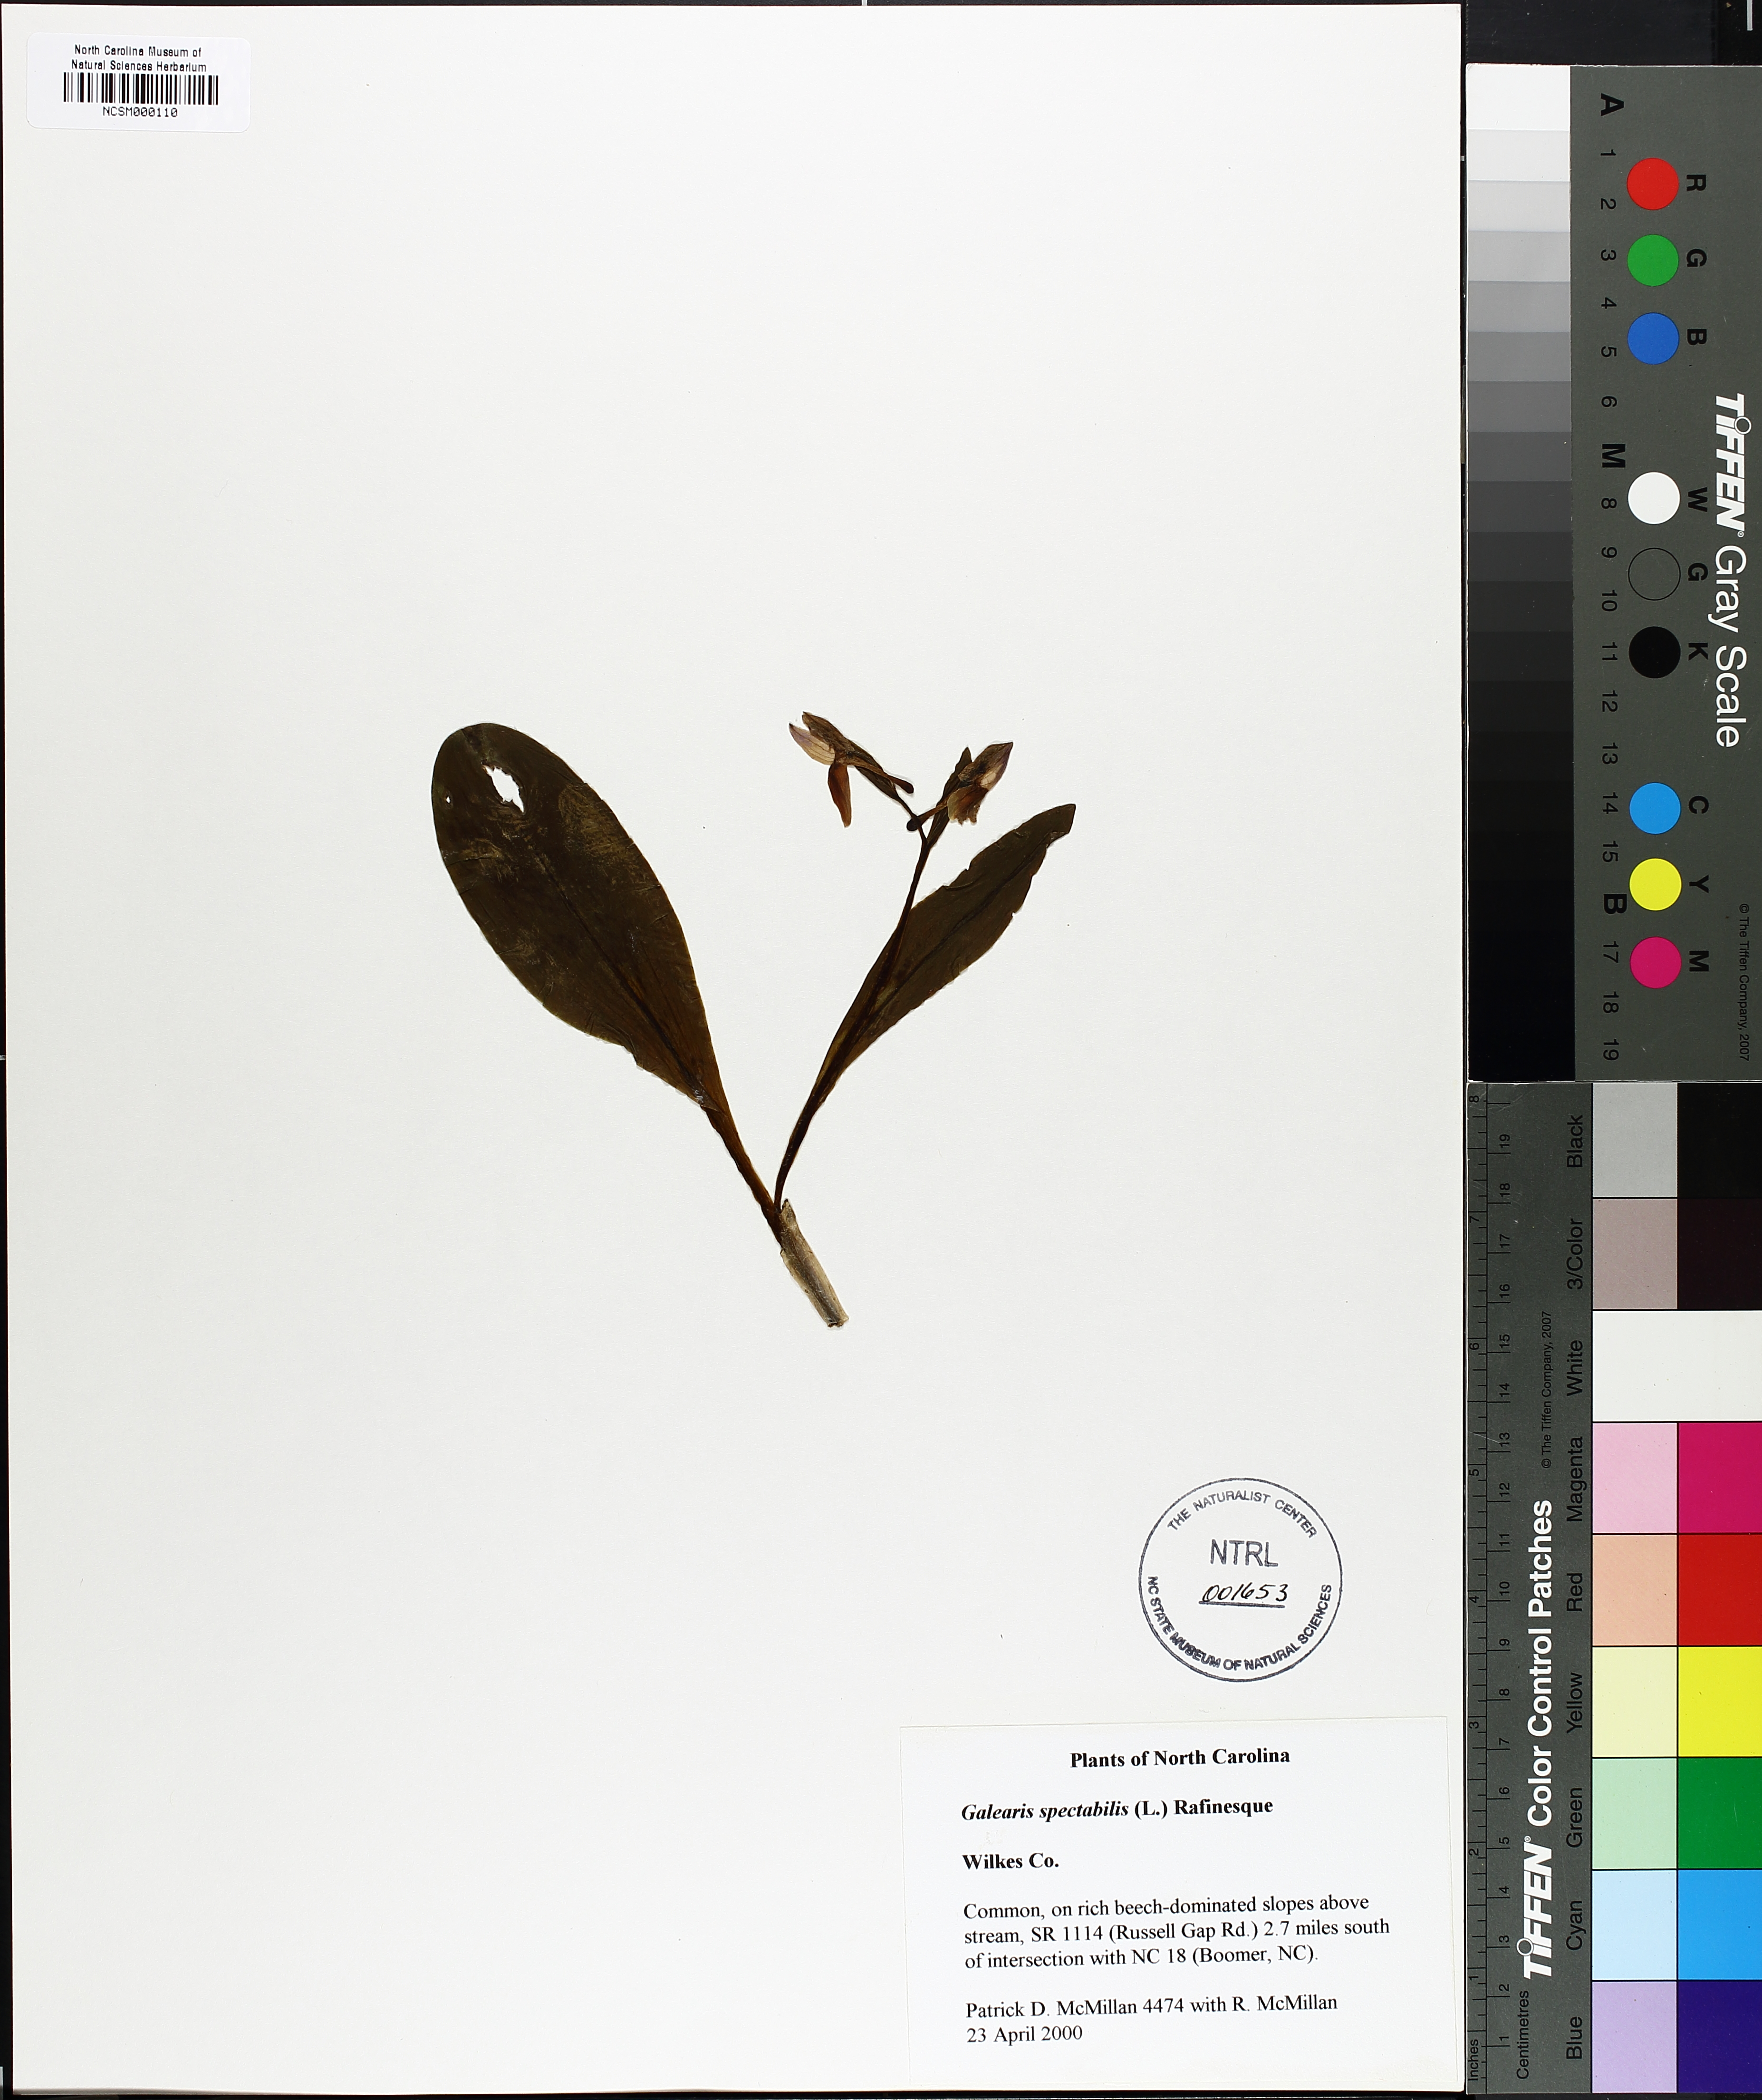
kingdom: Plantae
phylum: Tracheophyta
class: Liliopsida
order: Asparagales
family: Orchidaceae
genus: Galearis
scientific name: Galearis spectabilis
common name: Purple-hooded orchis
